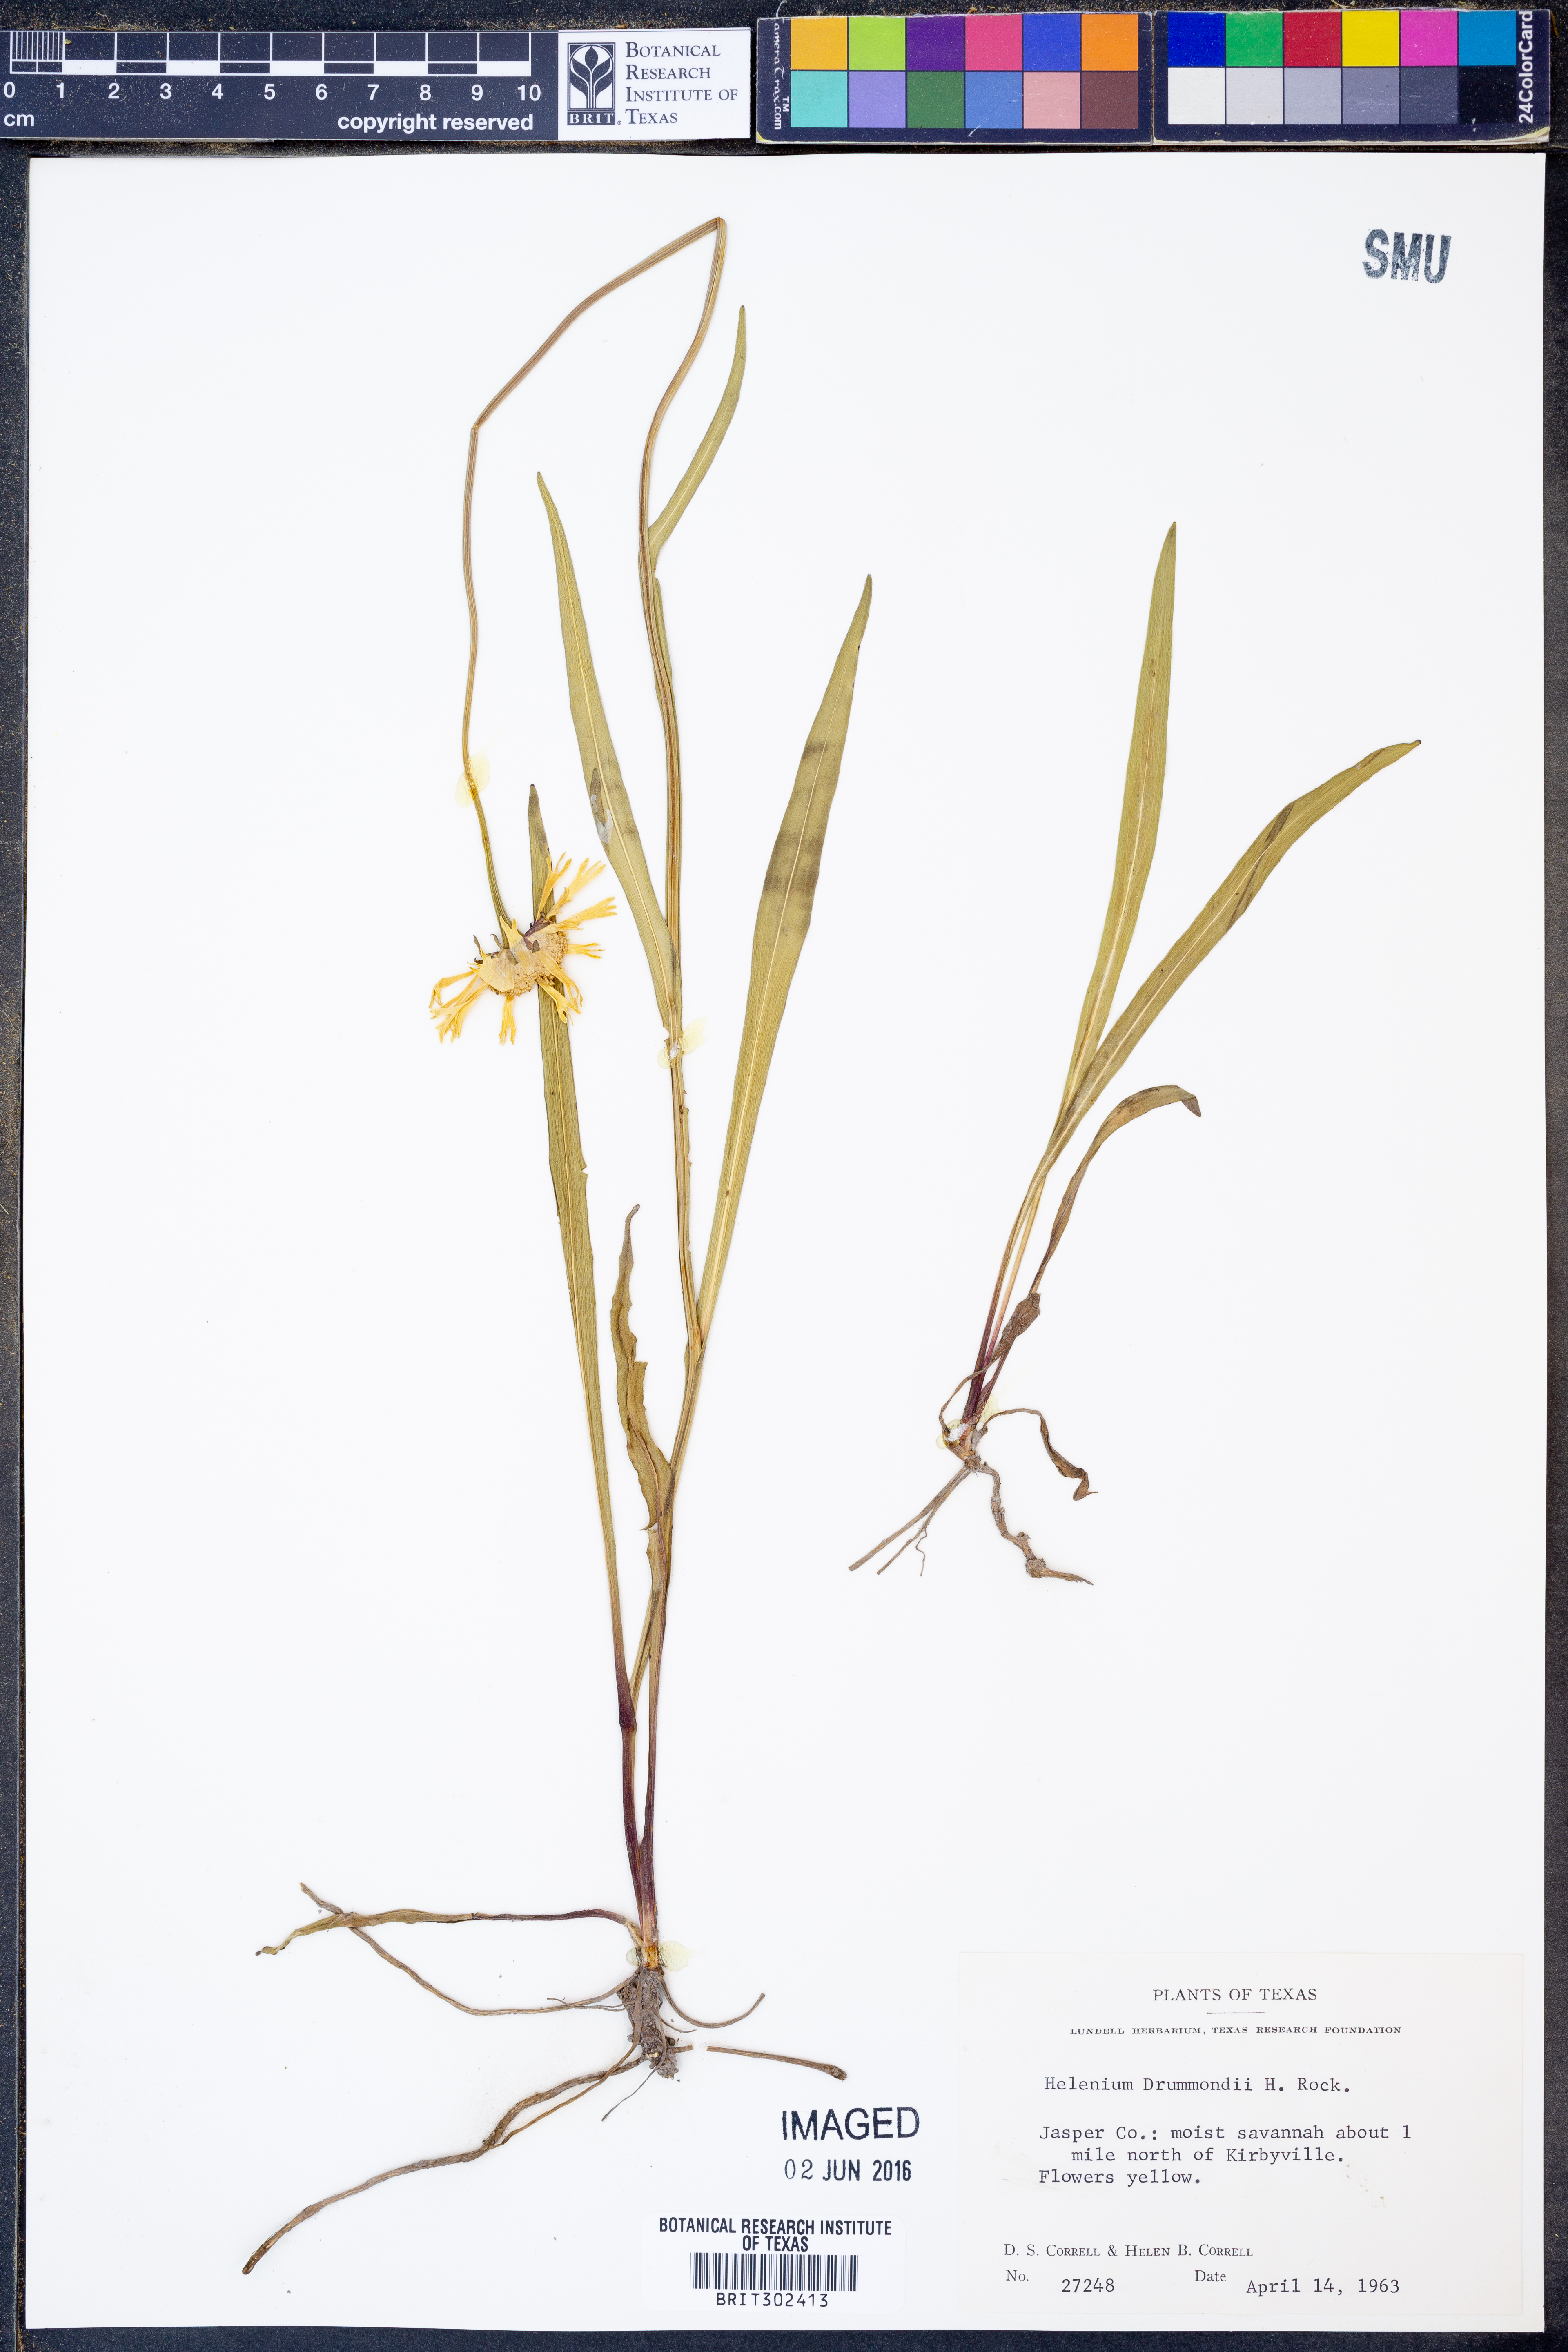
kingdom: Plantae
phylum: Tracheophyta
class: Magnoliopsida
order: Asterales
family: Asteraceae
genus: Helenium
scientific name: Helenium drummondii
